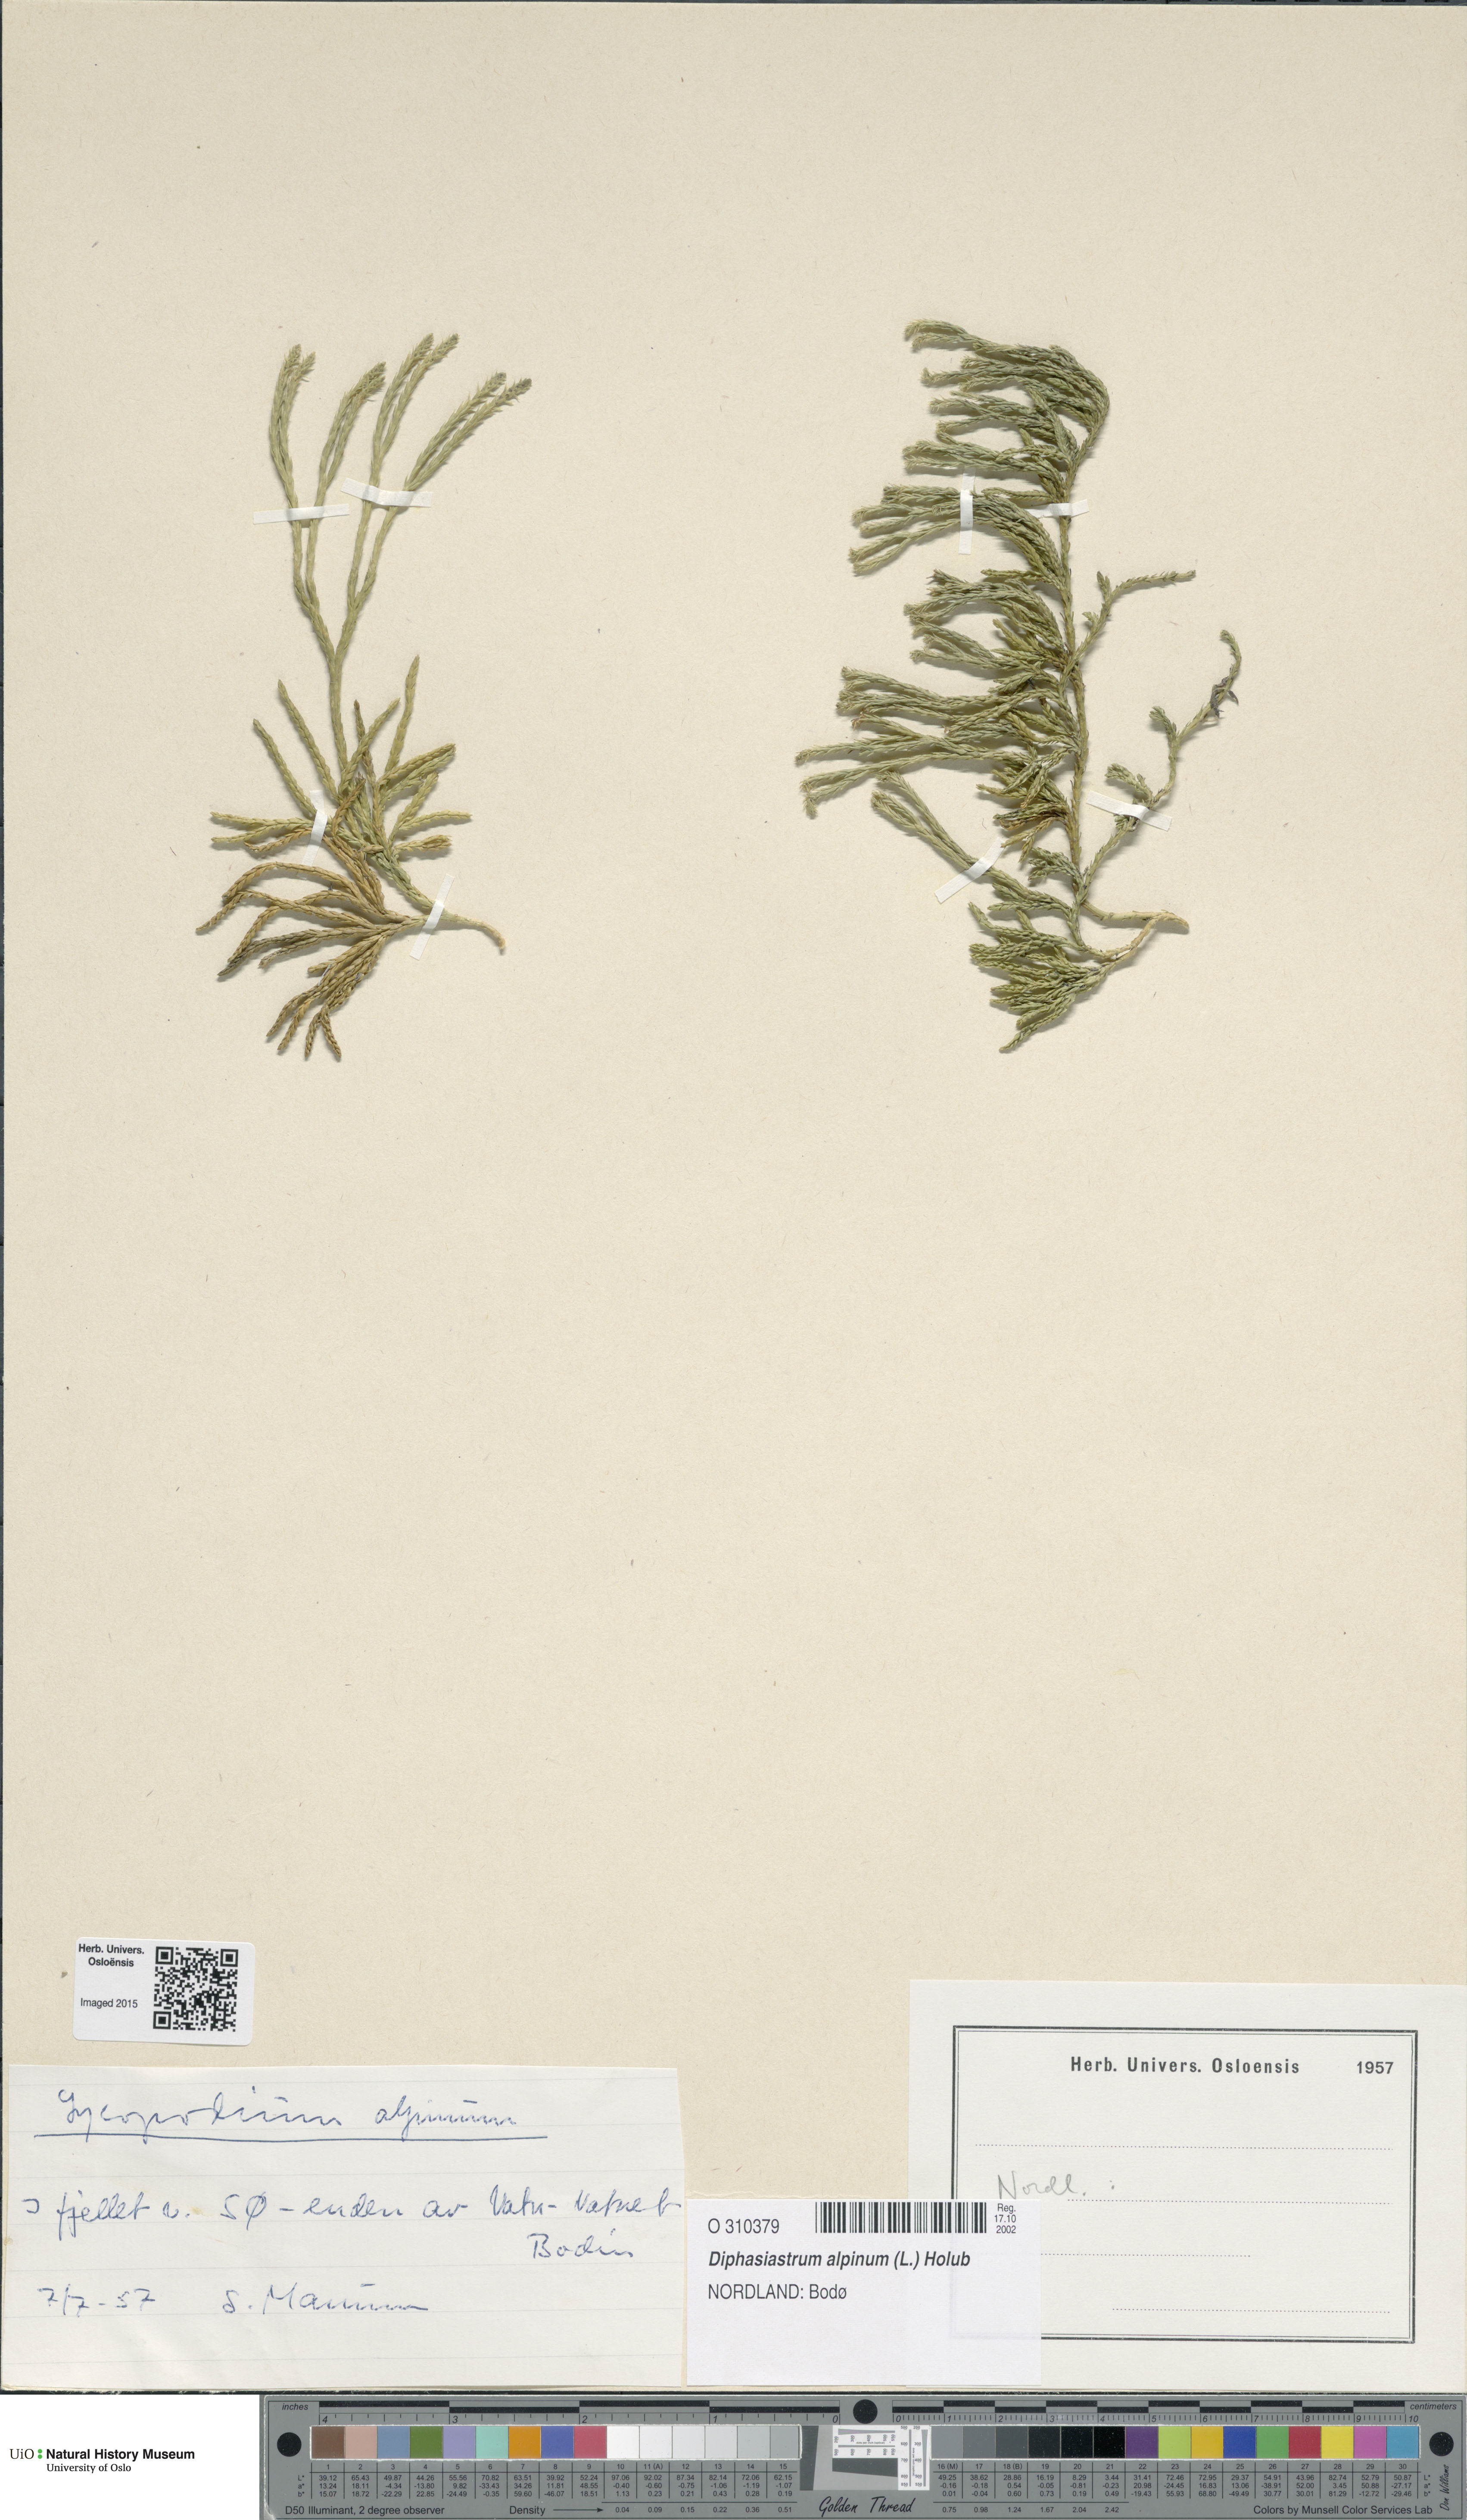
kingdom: Plantae
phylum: Tracheophyta
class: Lycopodiopsida
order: Lycopodiales
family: Lycopodiaceae
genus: Diphasiastrum
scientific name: Diphasiastrum alpinum
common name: Alpine clubmoss
